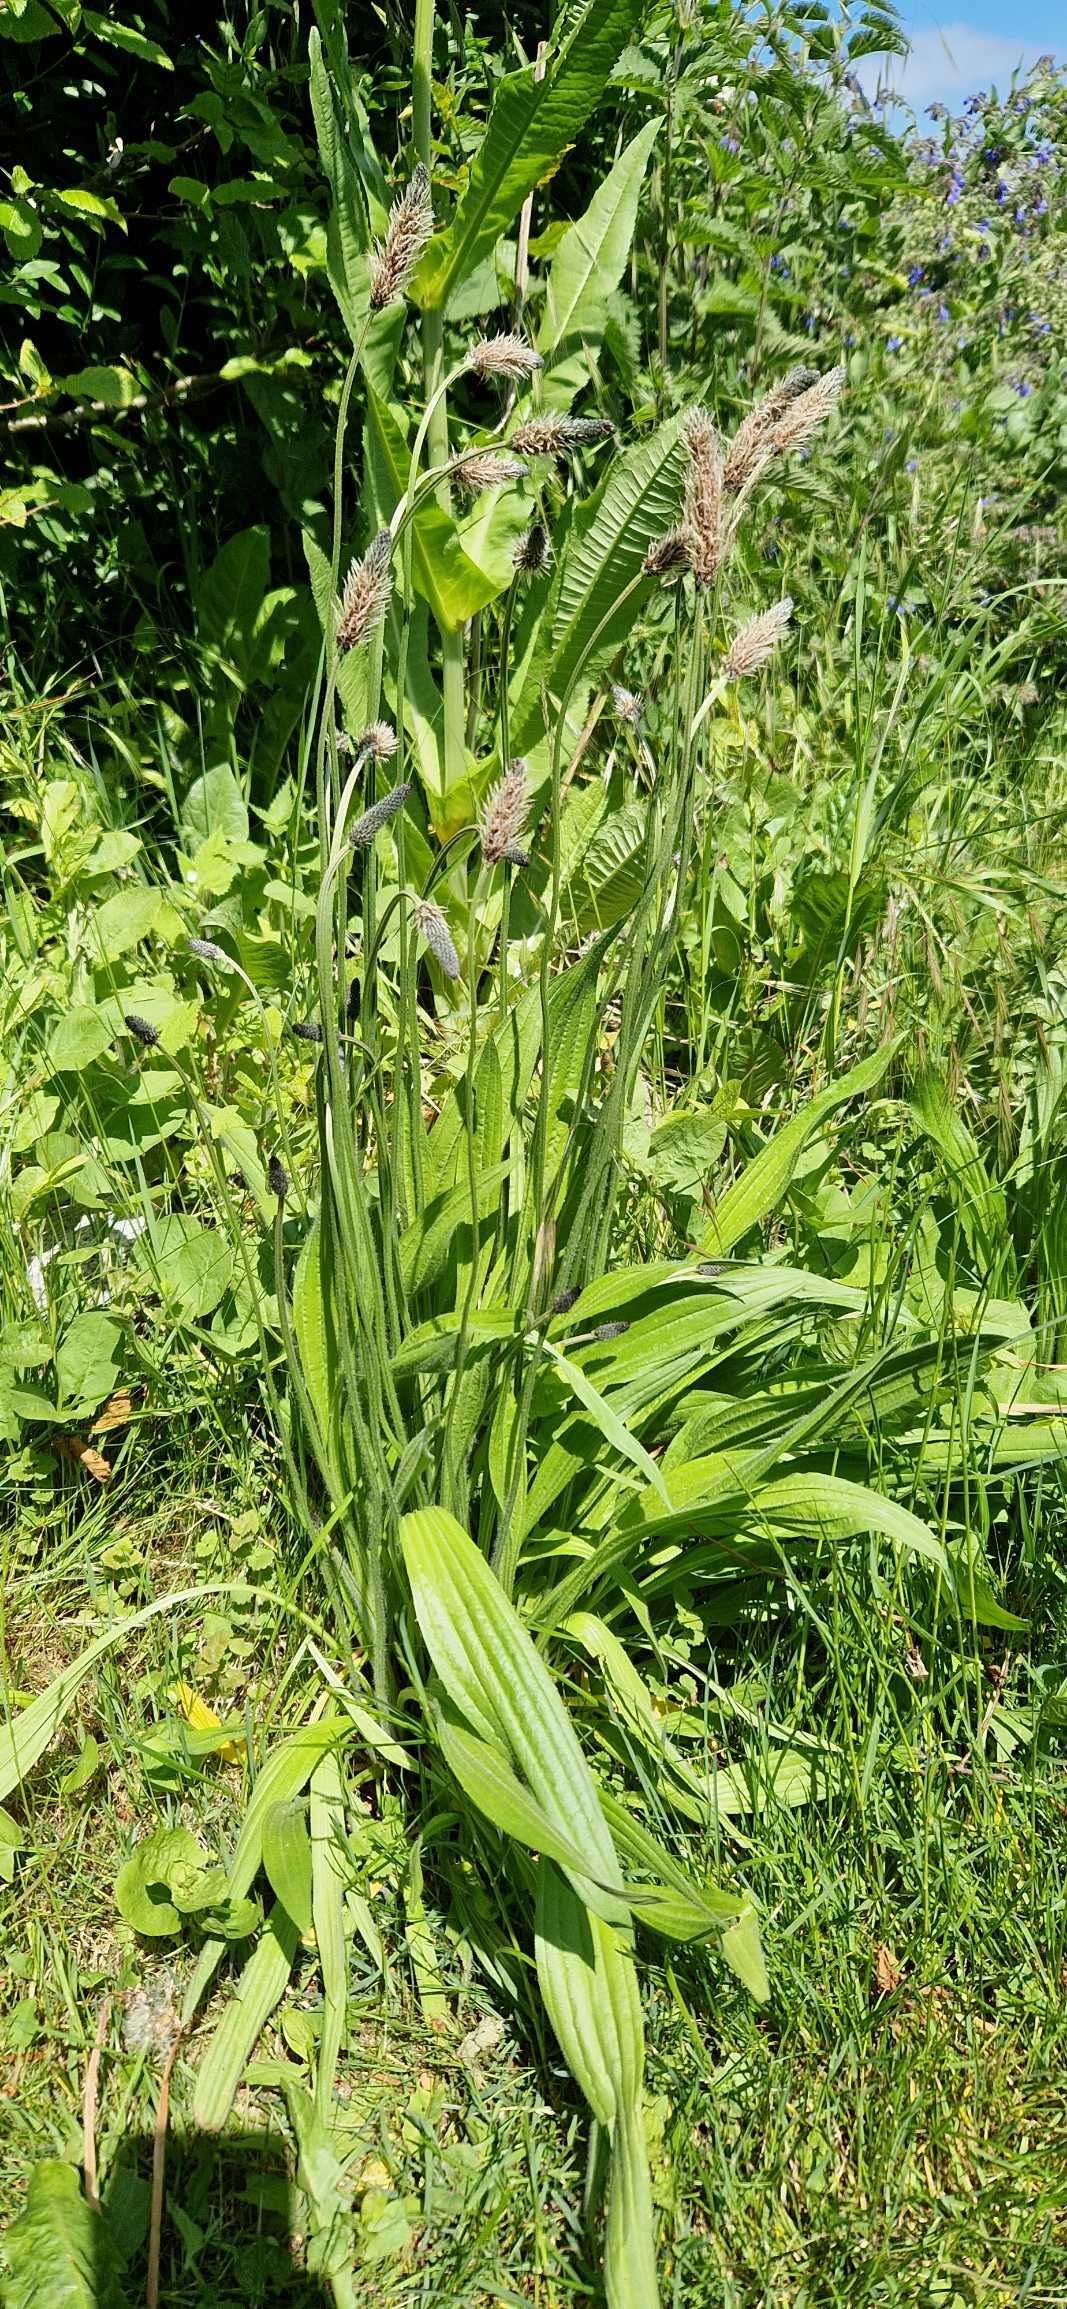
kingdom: Plantae
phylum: Tracheophyta
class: Magnoliopsida
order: Lamiales
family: Plantaginaceae
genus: Plantago
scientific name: Plantago lanceolata
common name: Lancet-vejbred
